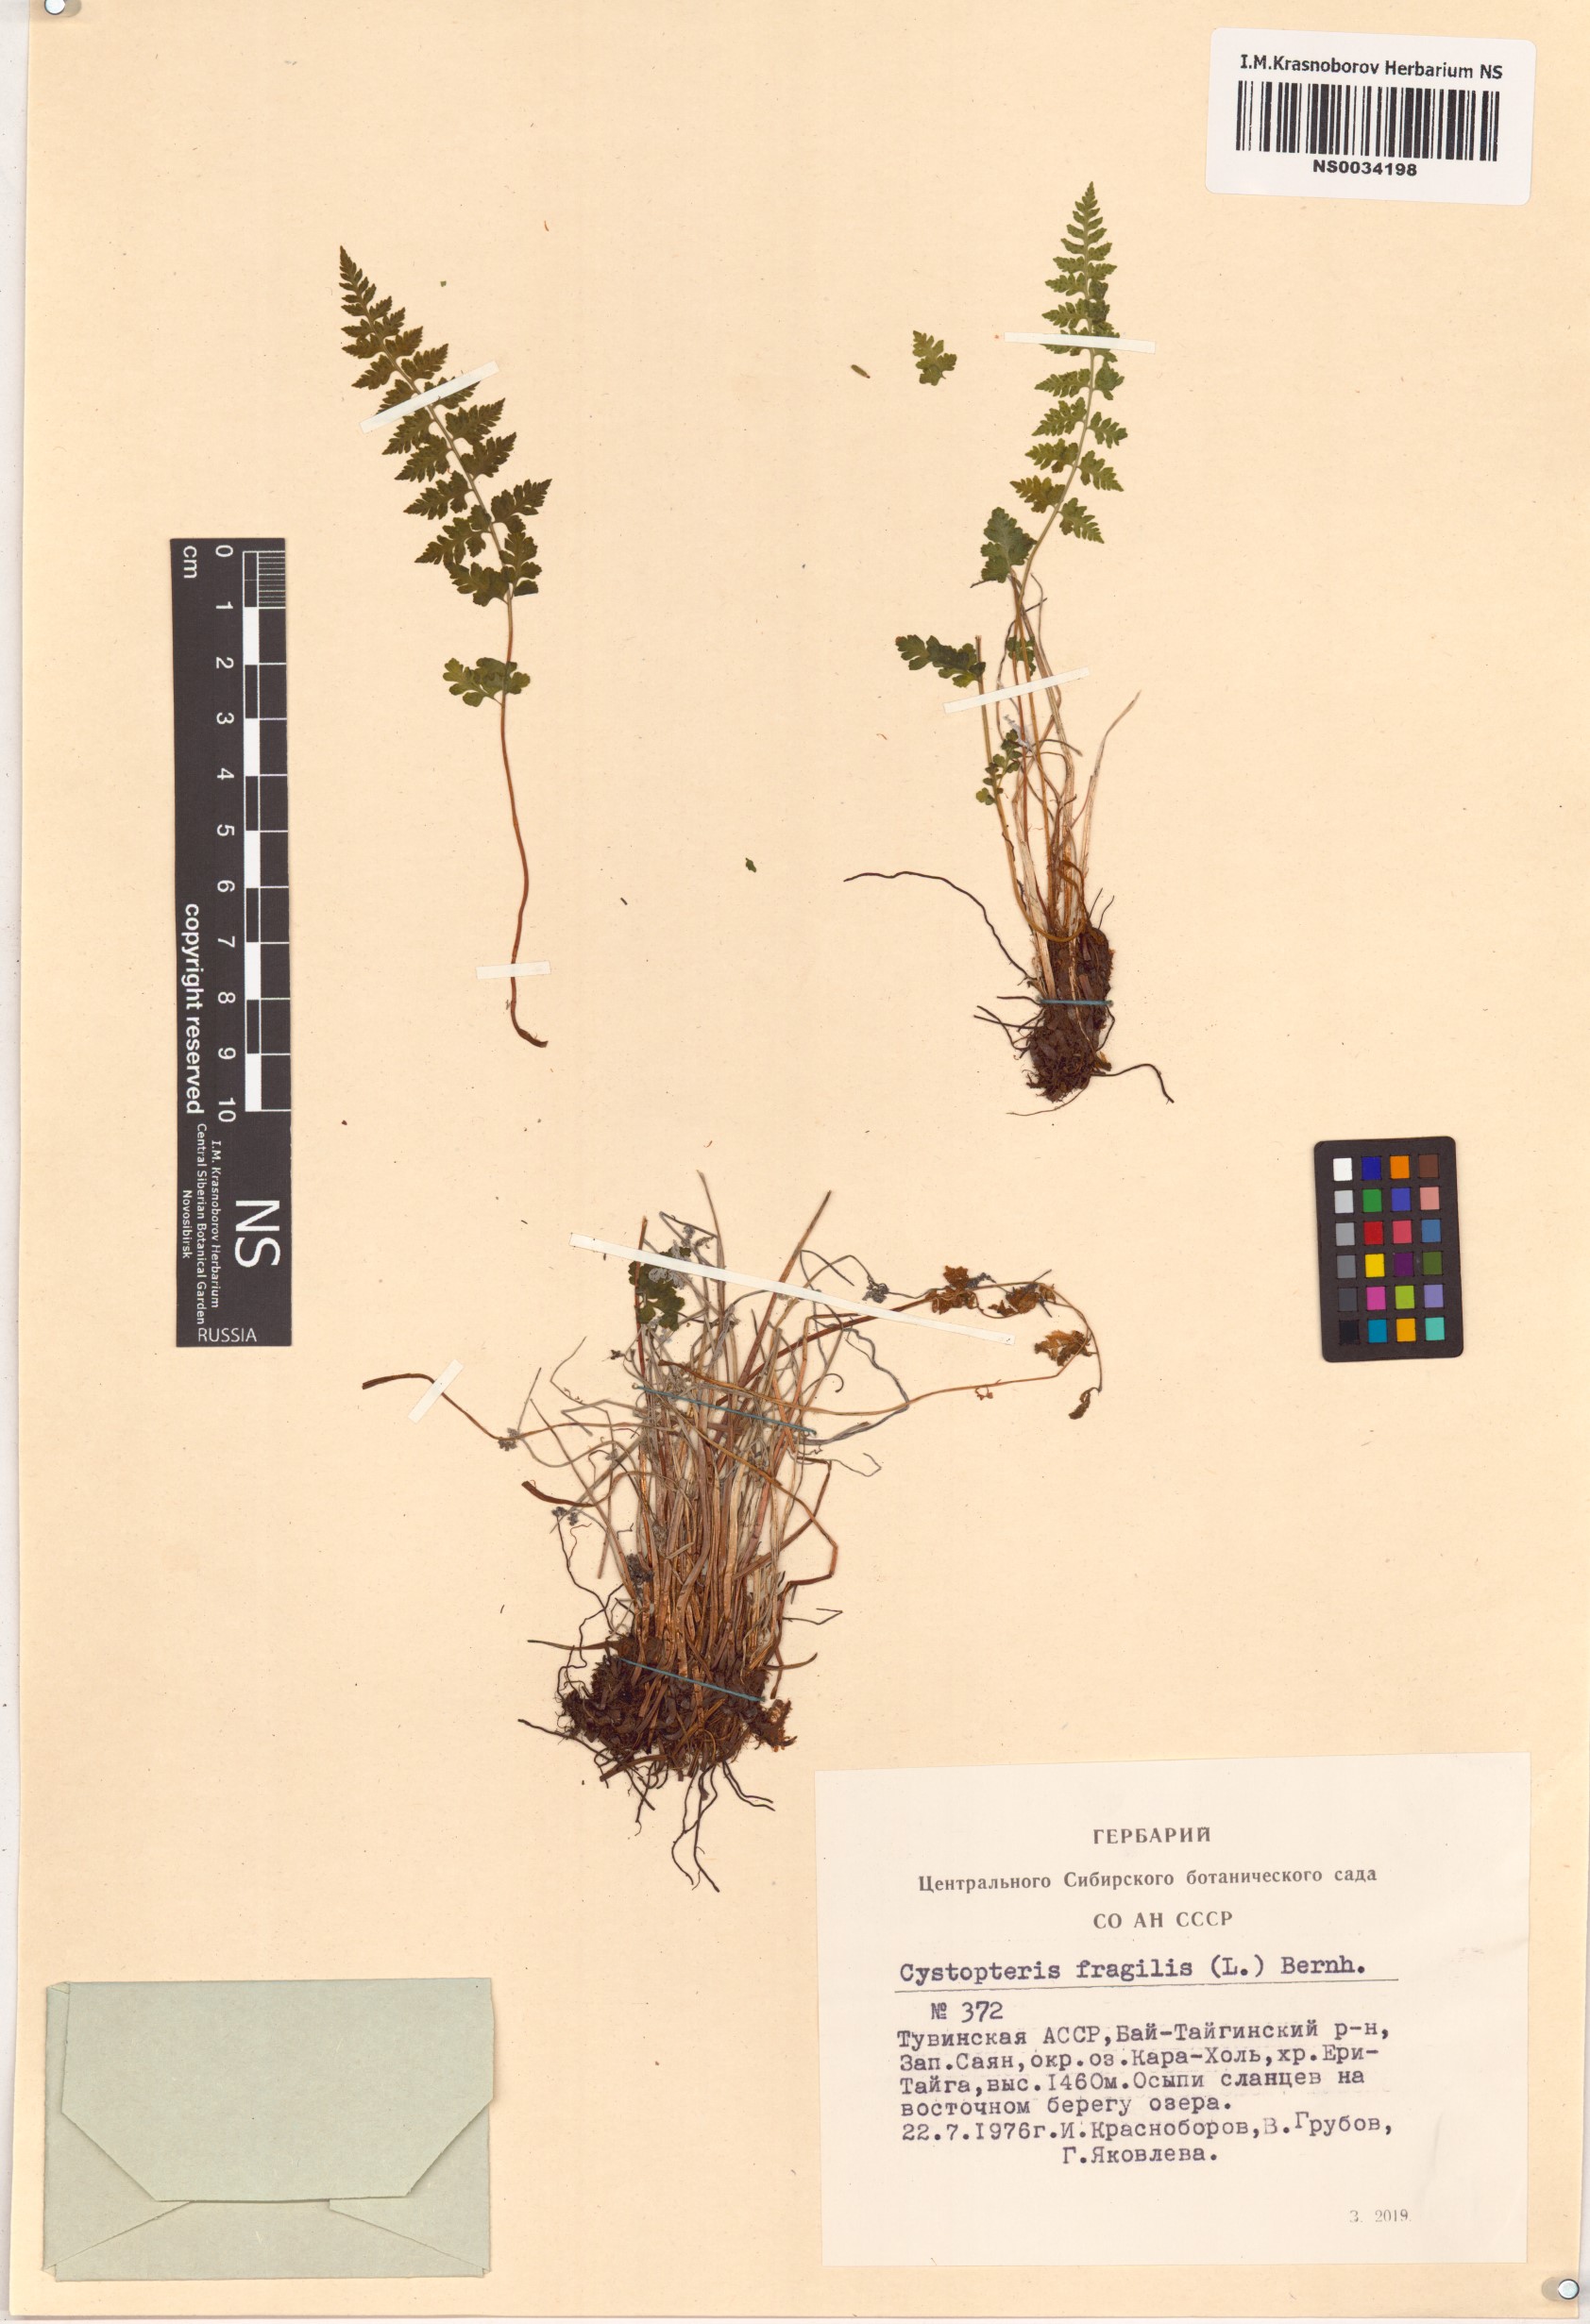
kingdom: Plantae
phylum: Tracheophyta
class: Polypodiopsida
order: Polypodiales
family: Cystopteridaceae
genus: Cystopteris
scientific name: Cystopteris fragilis
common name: Brittle bladder fern
